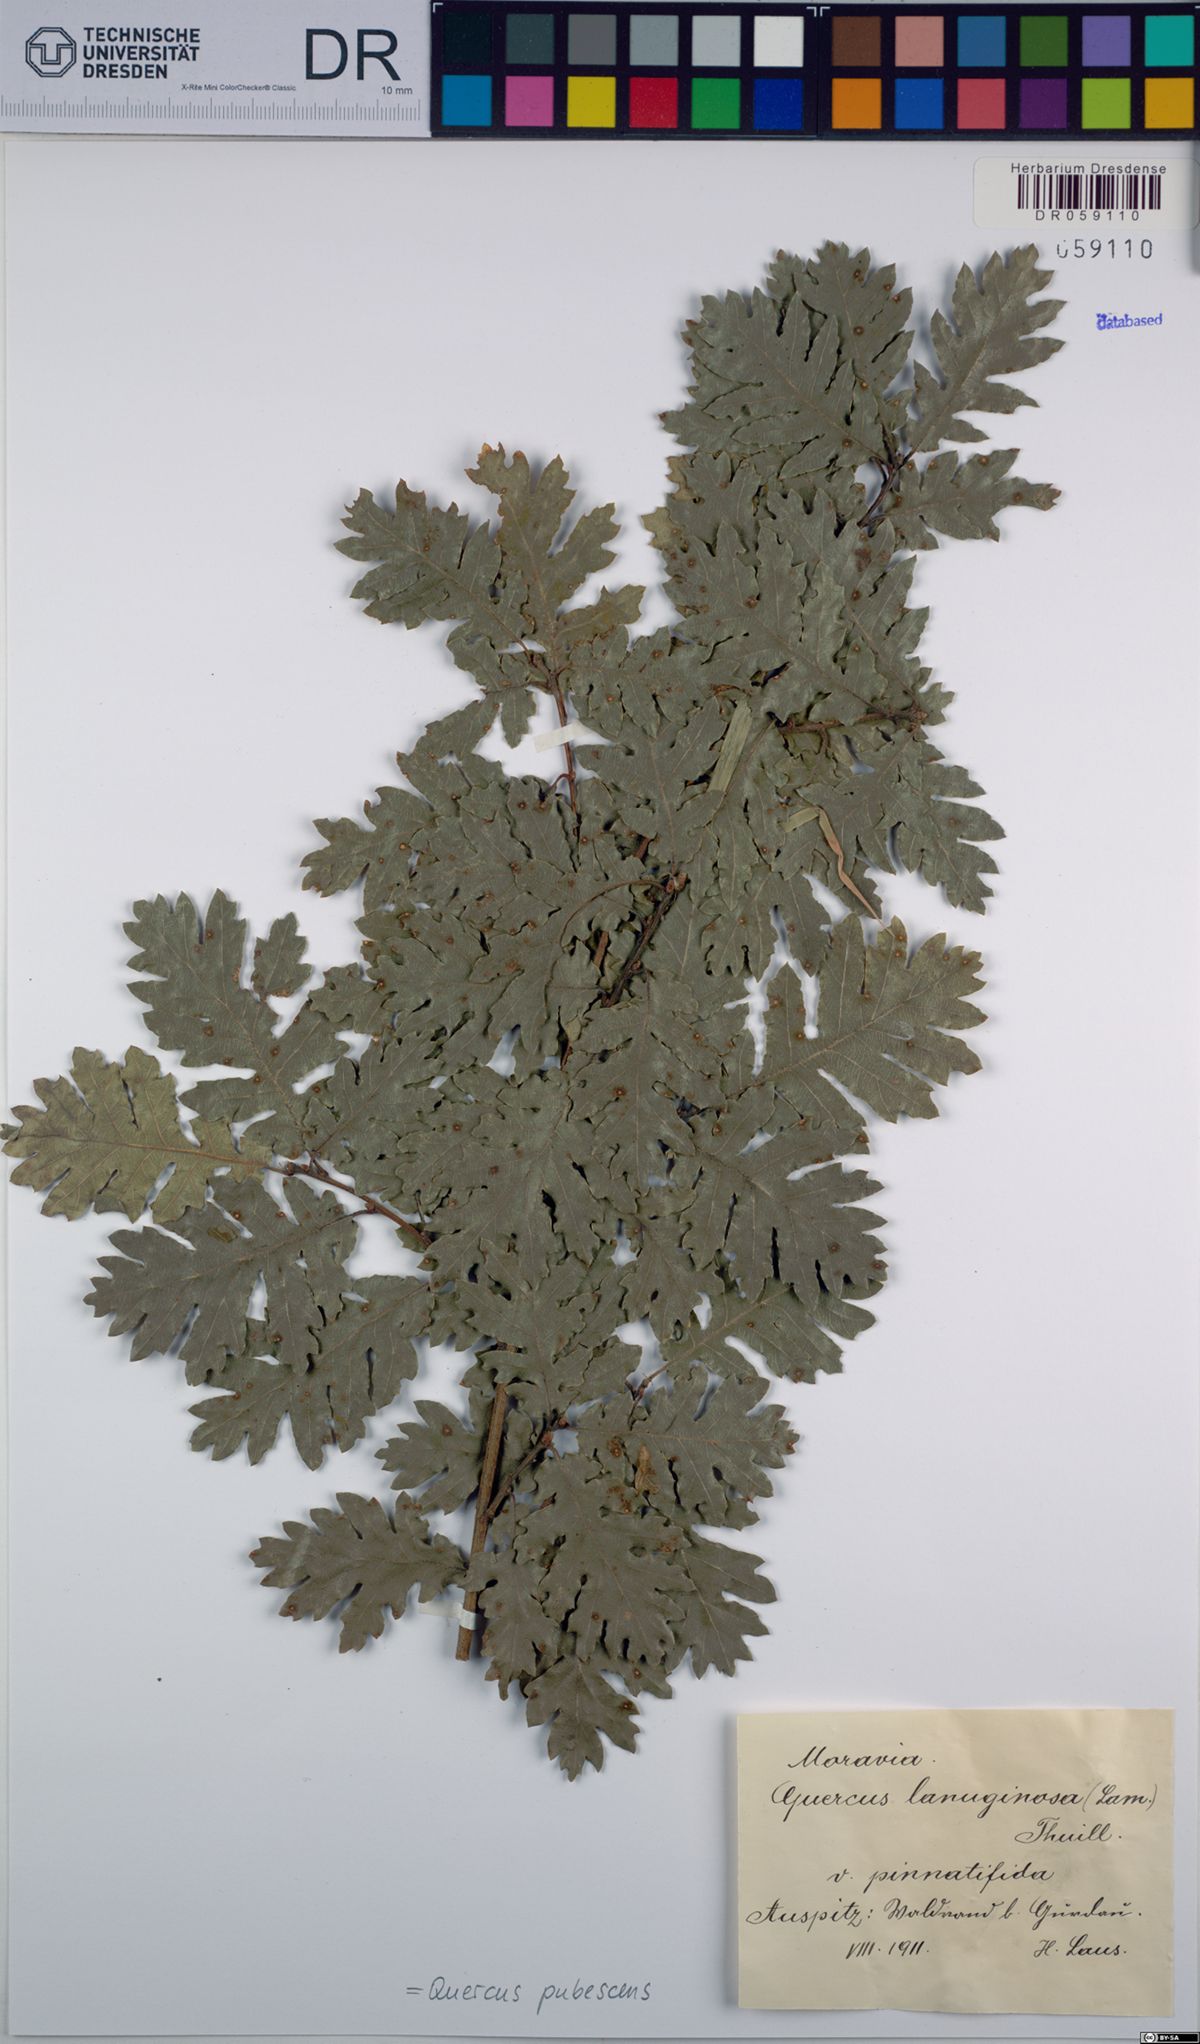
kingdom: Plantae
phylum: Tracheophyta
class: Magnoliopsida
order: Fagales
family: Fagaceae
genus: Quercus
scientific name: Quercus pubescens
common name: Downy oak
